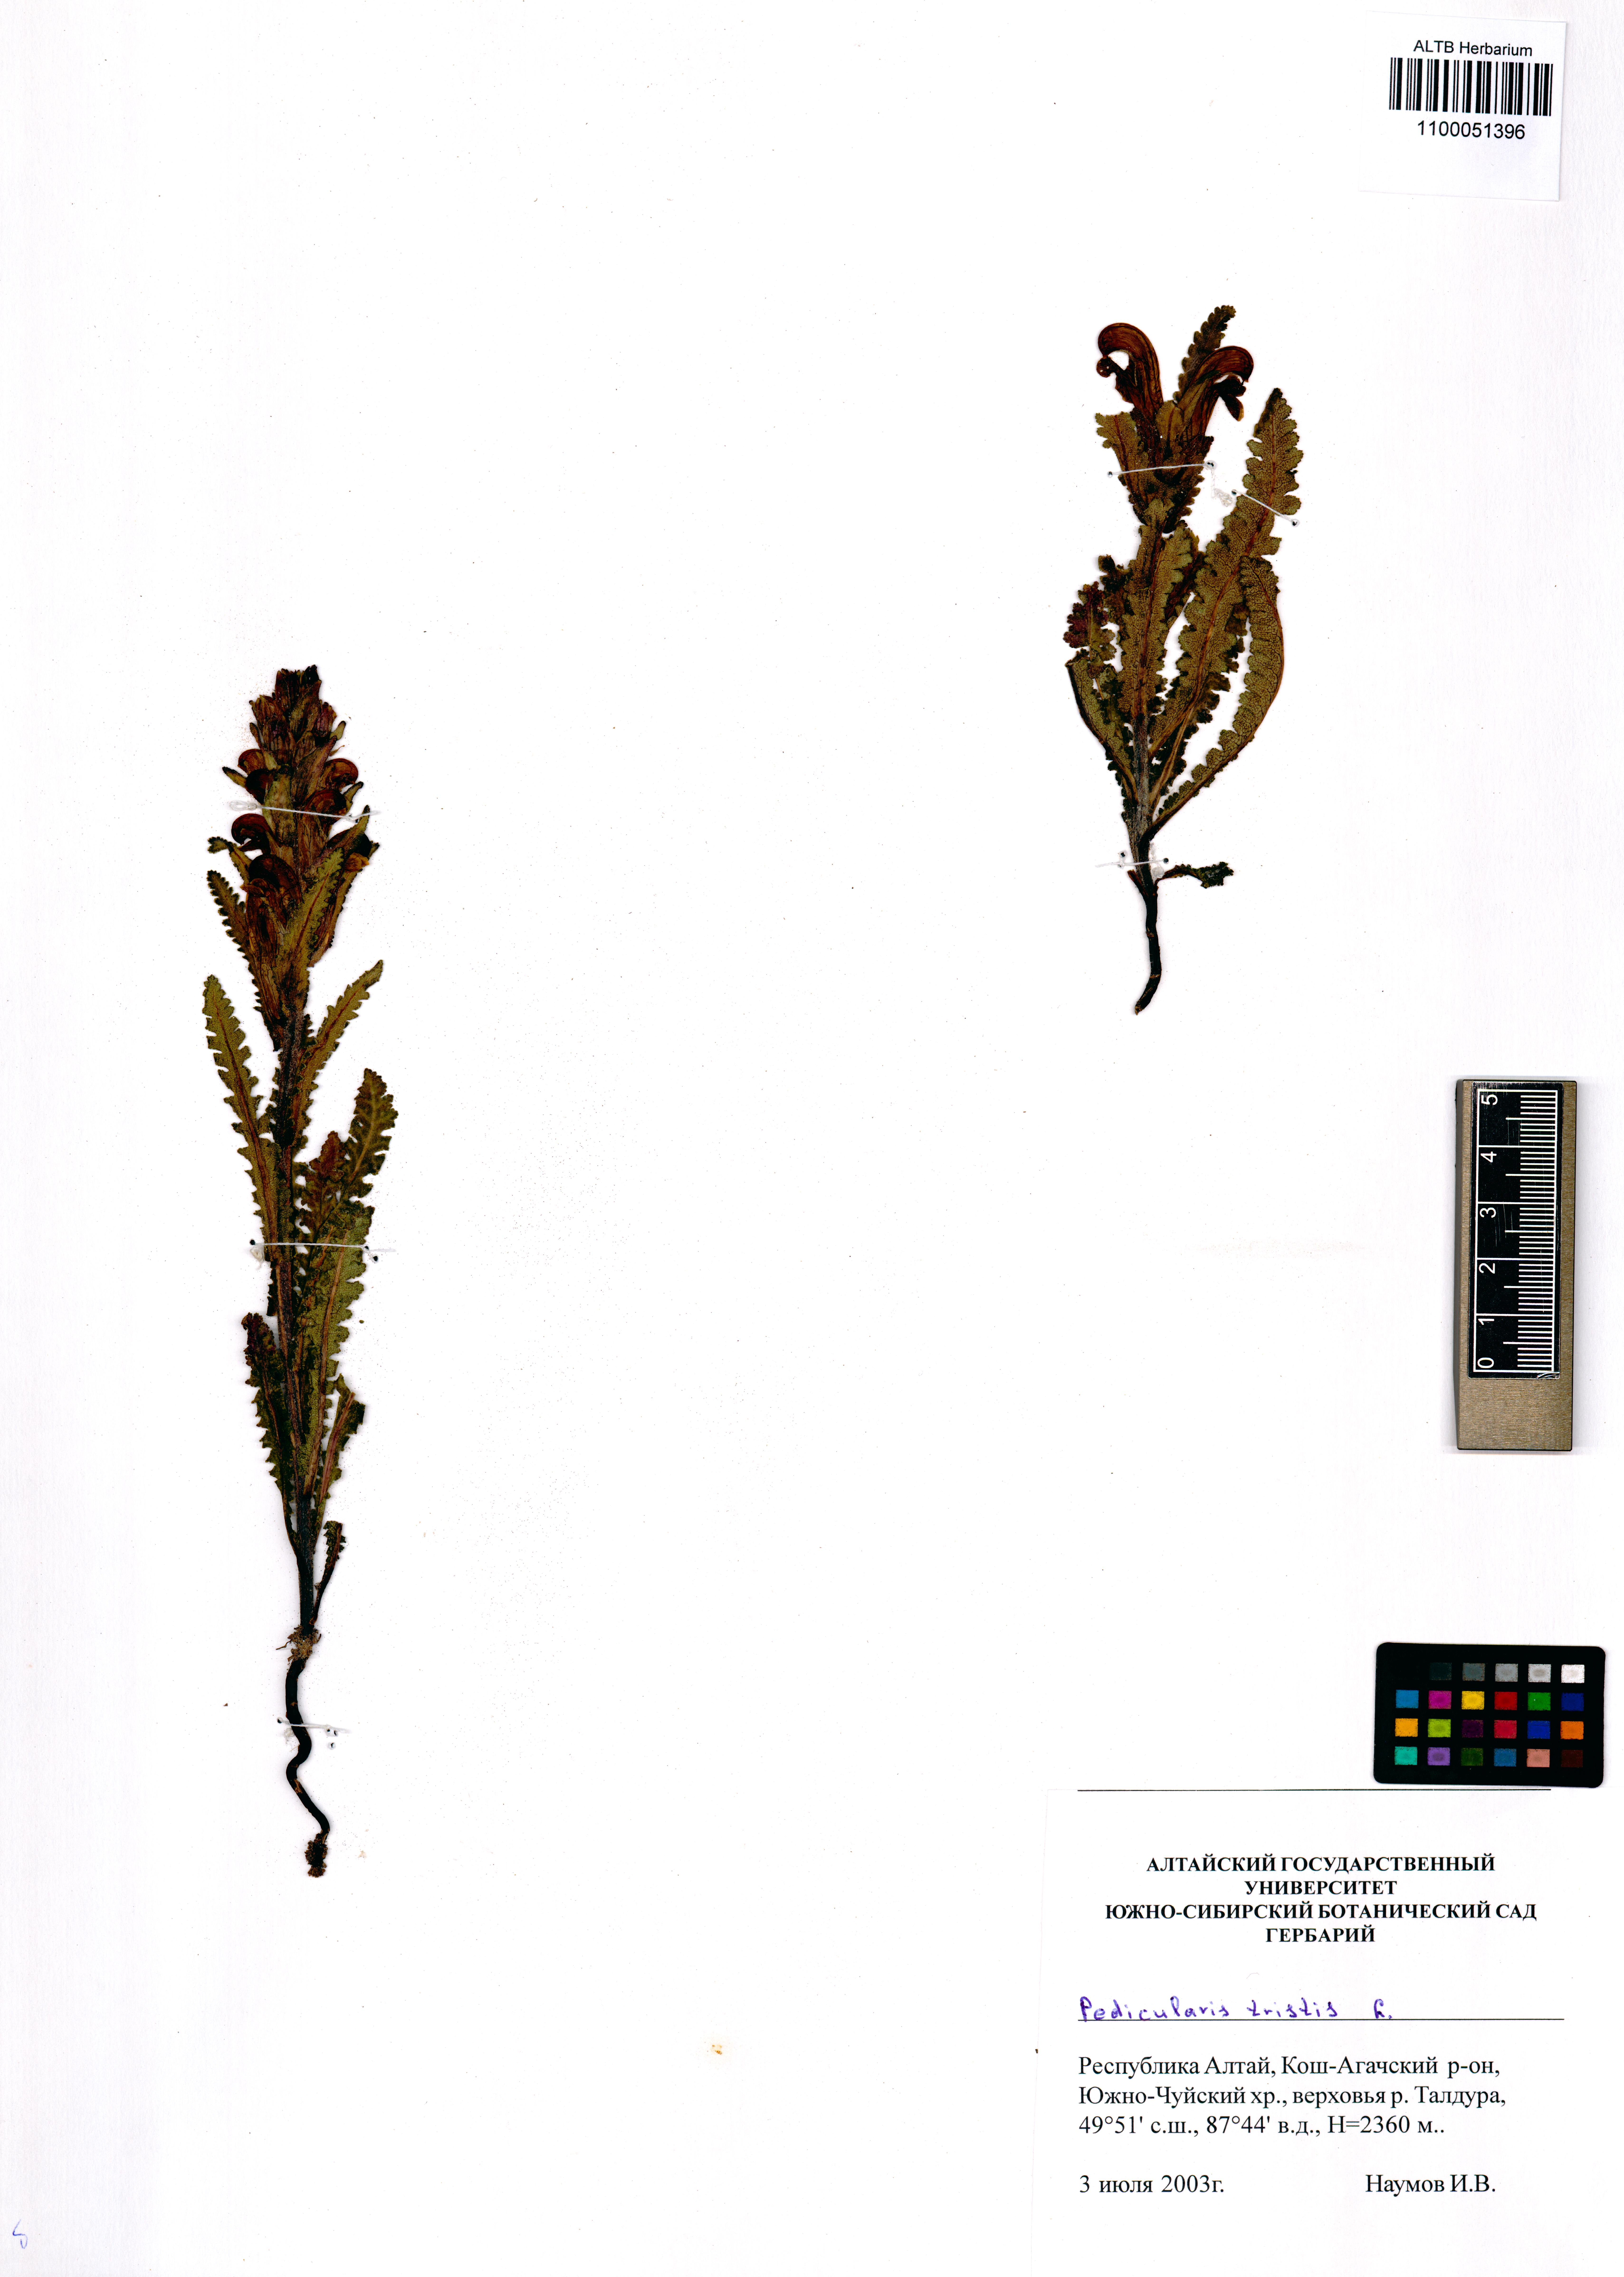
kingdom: Plantae
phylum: Tracheophyta
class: Magnoliopsida
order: Lamiales
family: Orobanchaceae
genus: Pedicularis
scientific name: Pedicularis tristis
